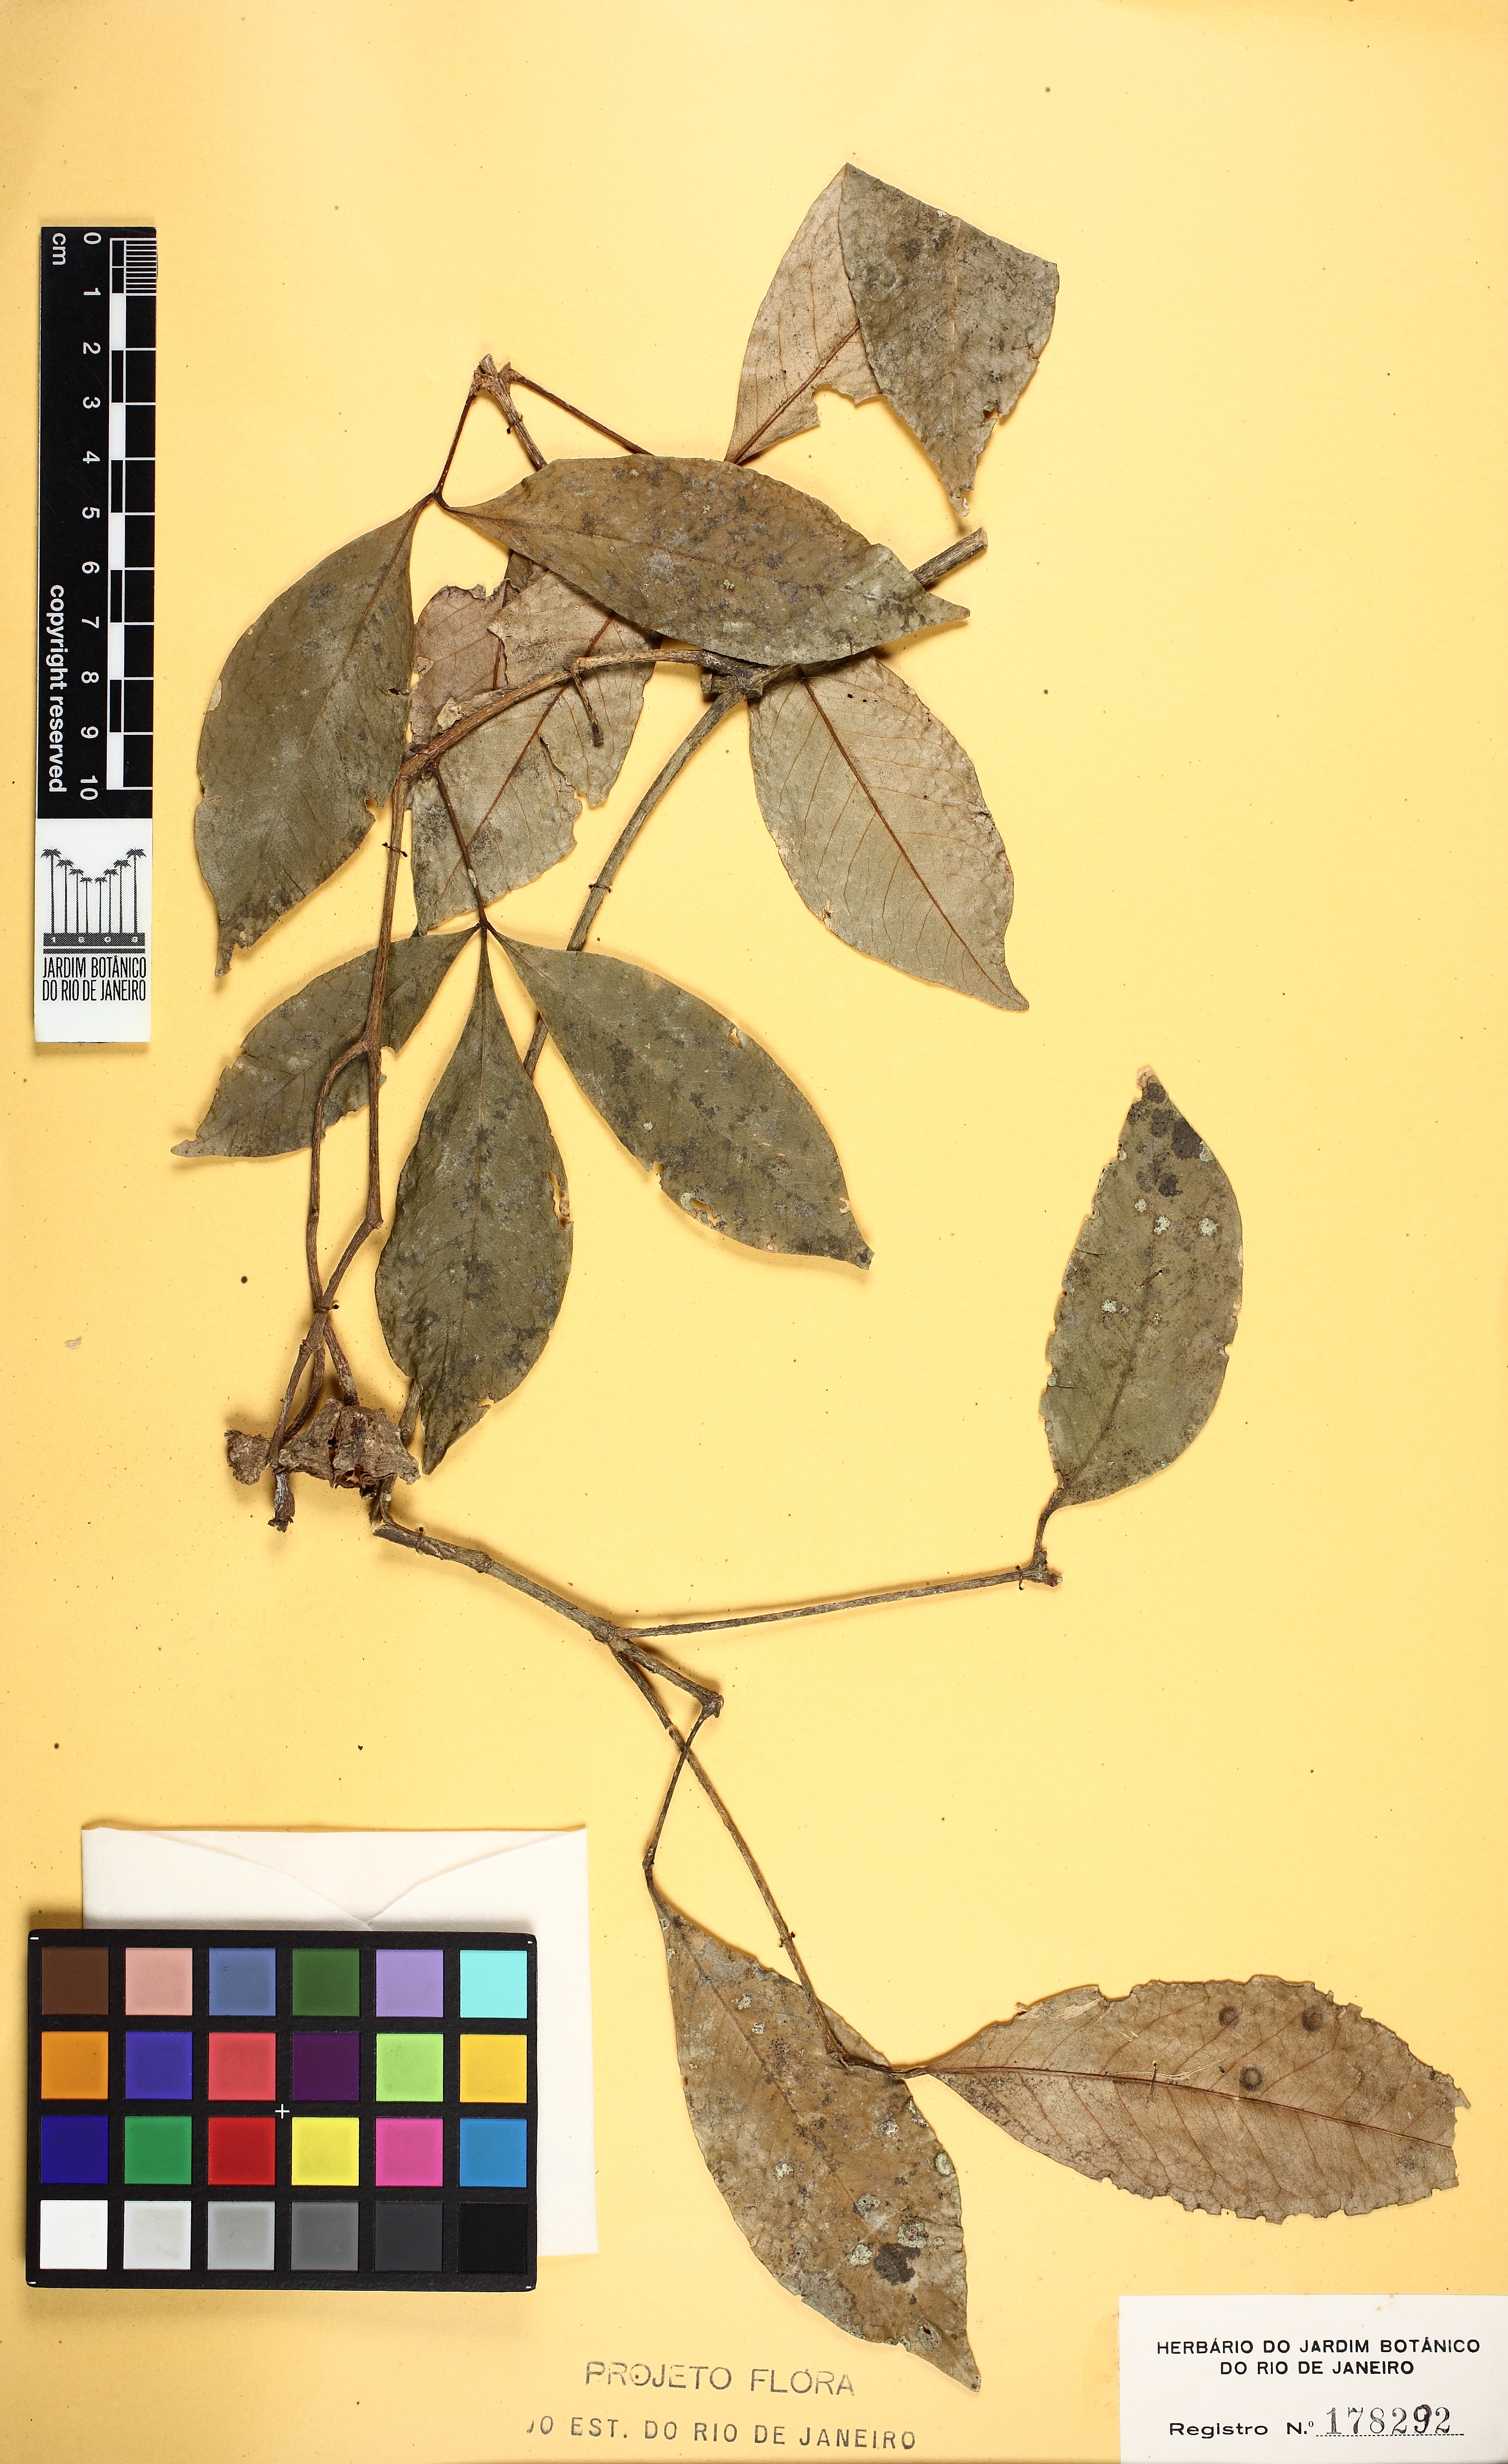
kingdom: Plantae
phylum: Tracheophyta
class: Magnoliopsida
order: Sapindales
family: Rutaceae
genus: Metrodorea
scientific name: Metrodorea nigra
